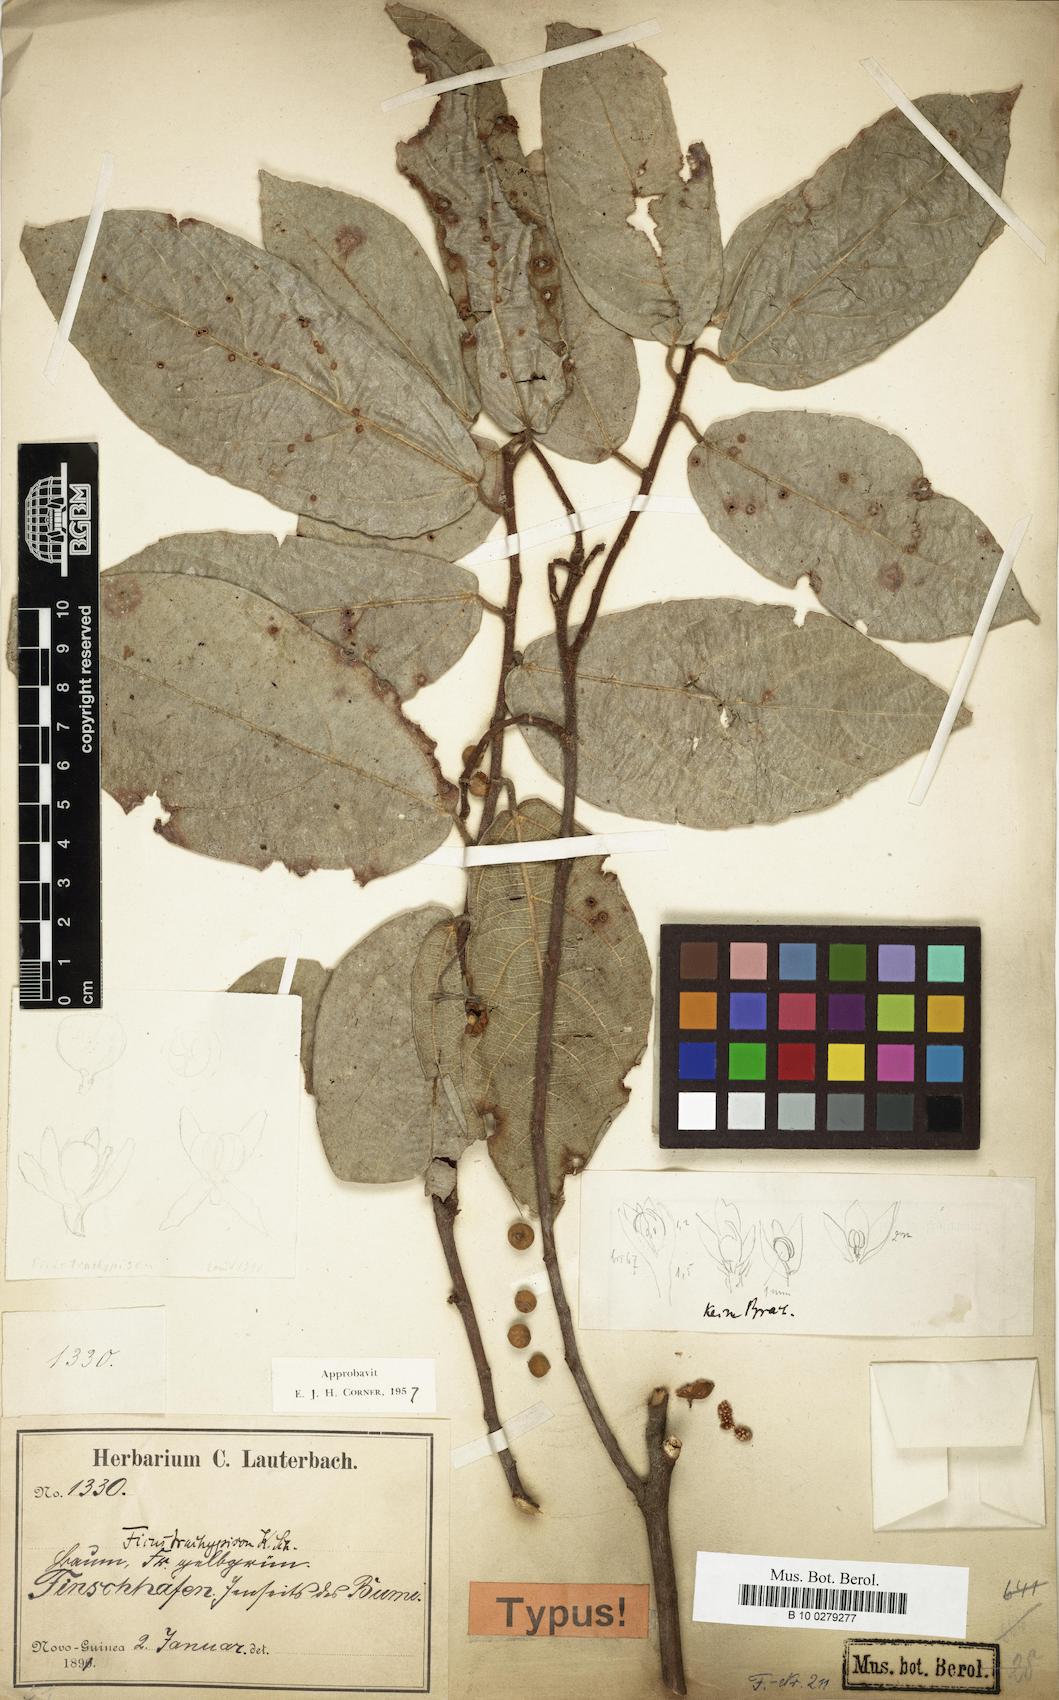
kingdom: Plantae
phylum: Tracheophyta
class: Magnoliopsida
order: Rosales
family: Moraceae
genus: Ficus
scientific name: Ficus trachypison
